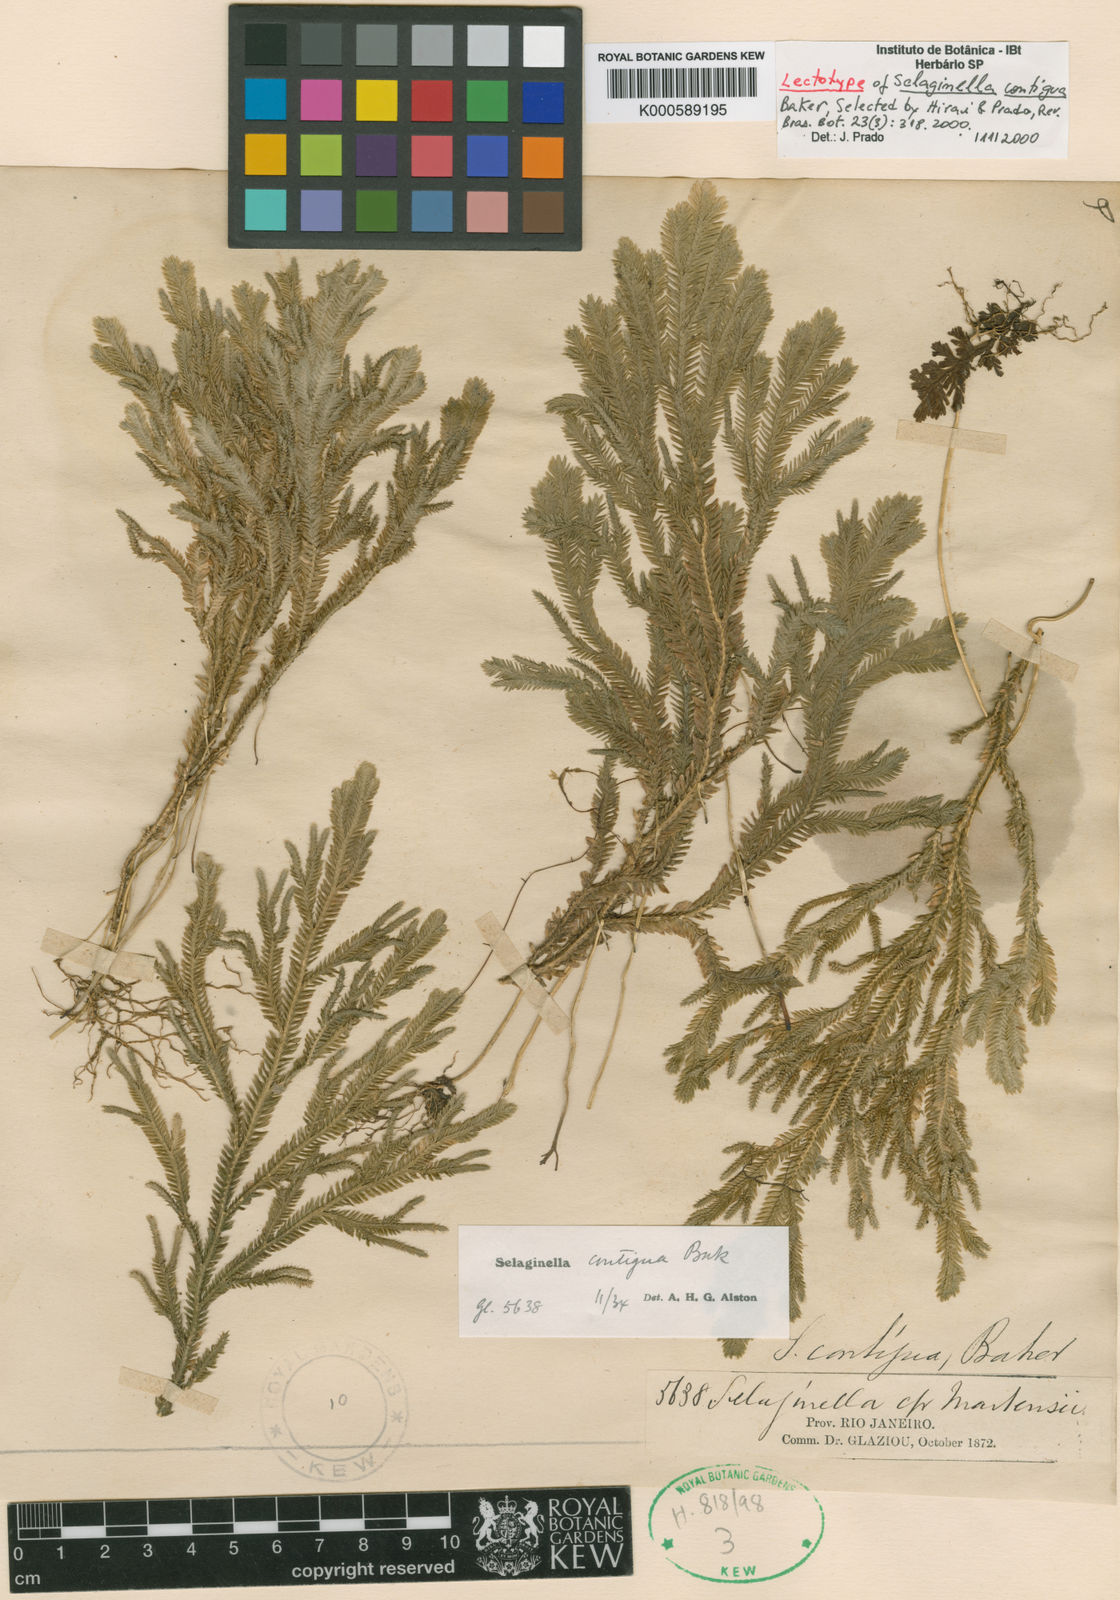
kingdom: Plantae
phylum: Tracheophyta
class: Lycopodiopsida
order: Selaginellales
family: Selaginellaceae
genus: Selaginella
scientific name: Selaginella contigua
